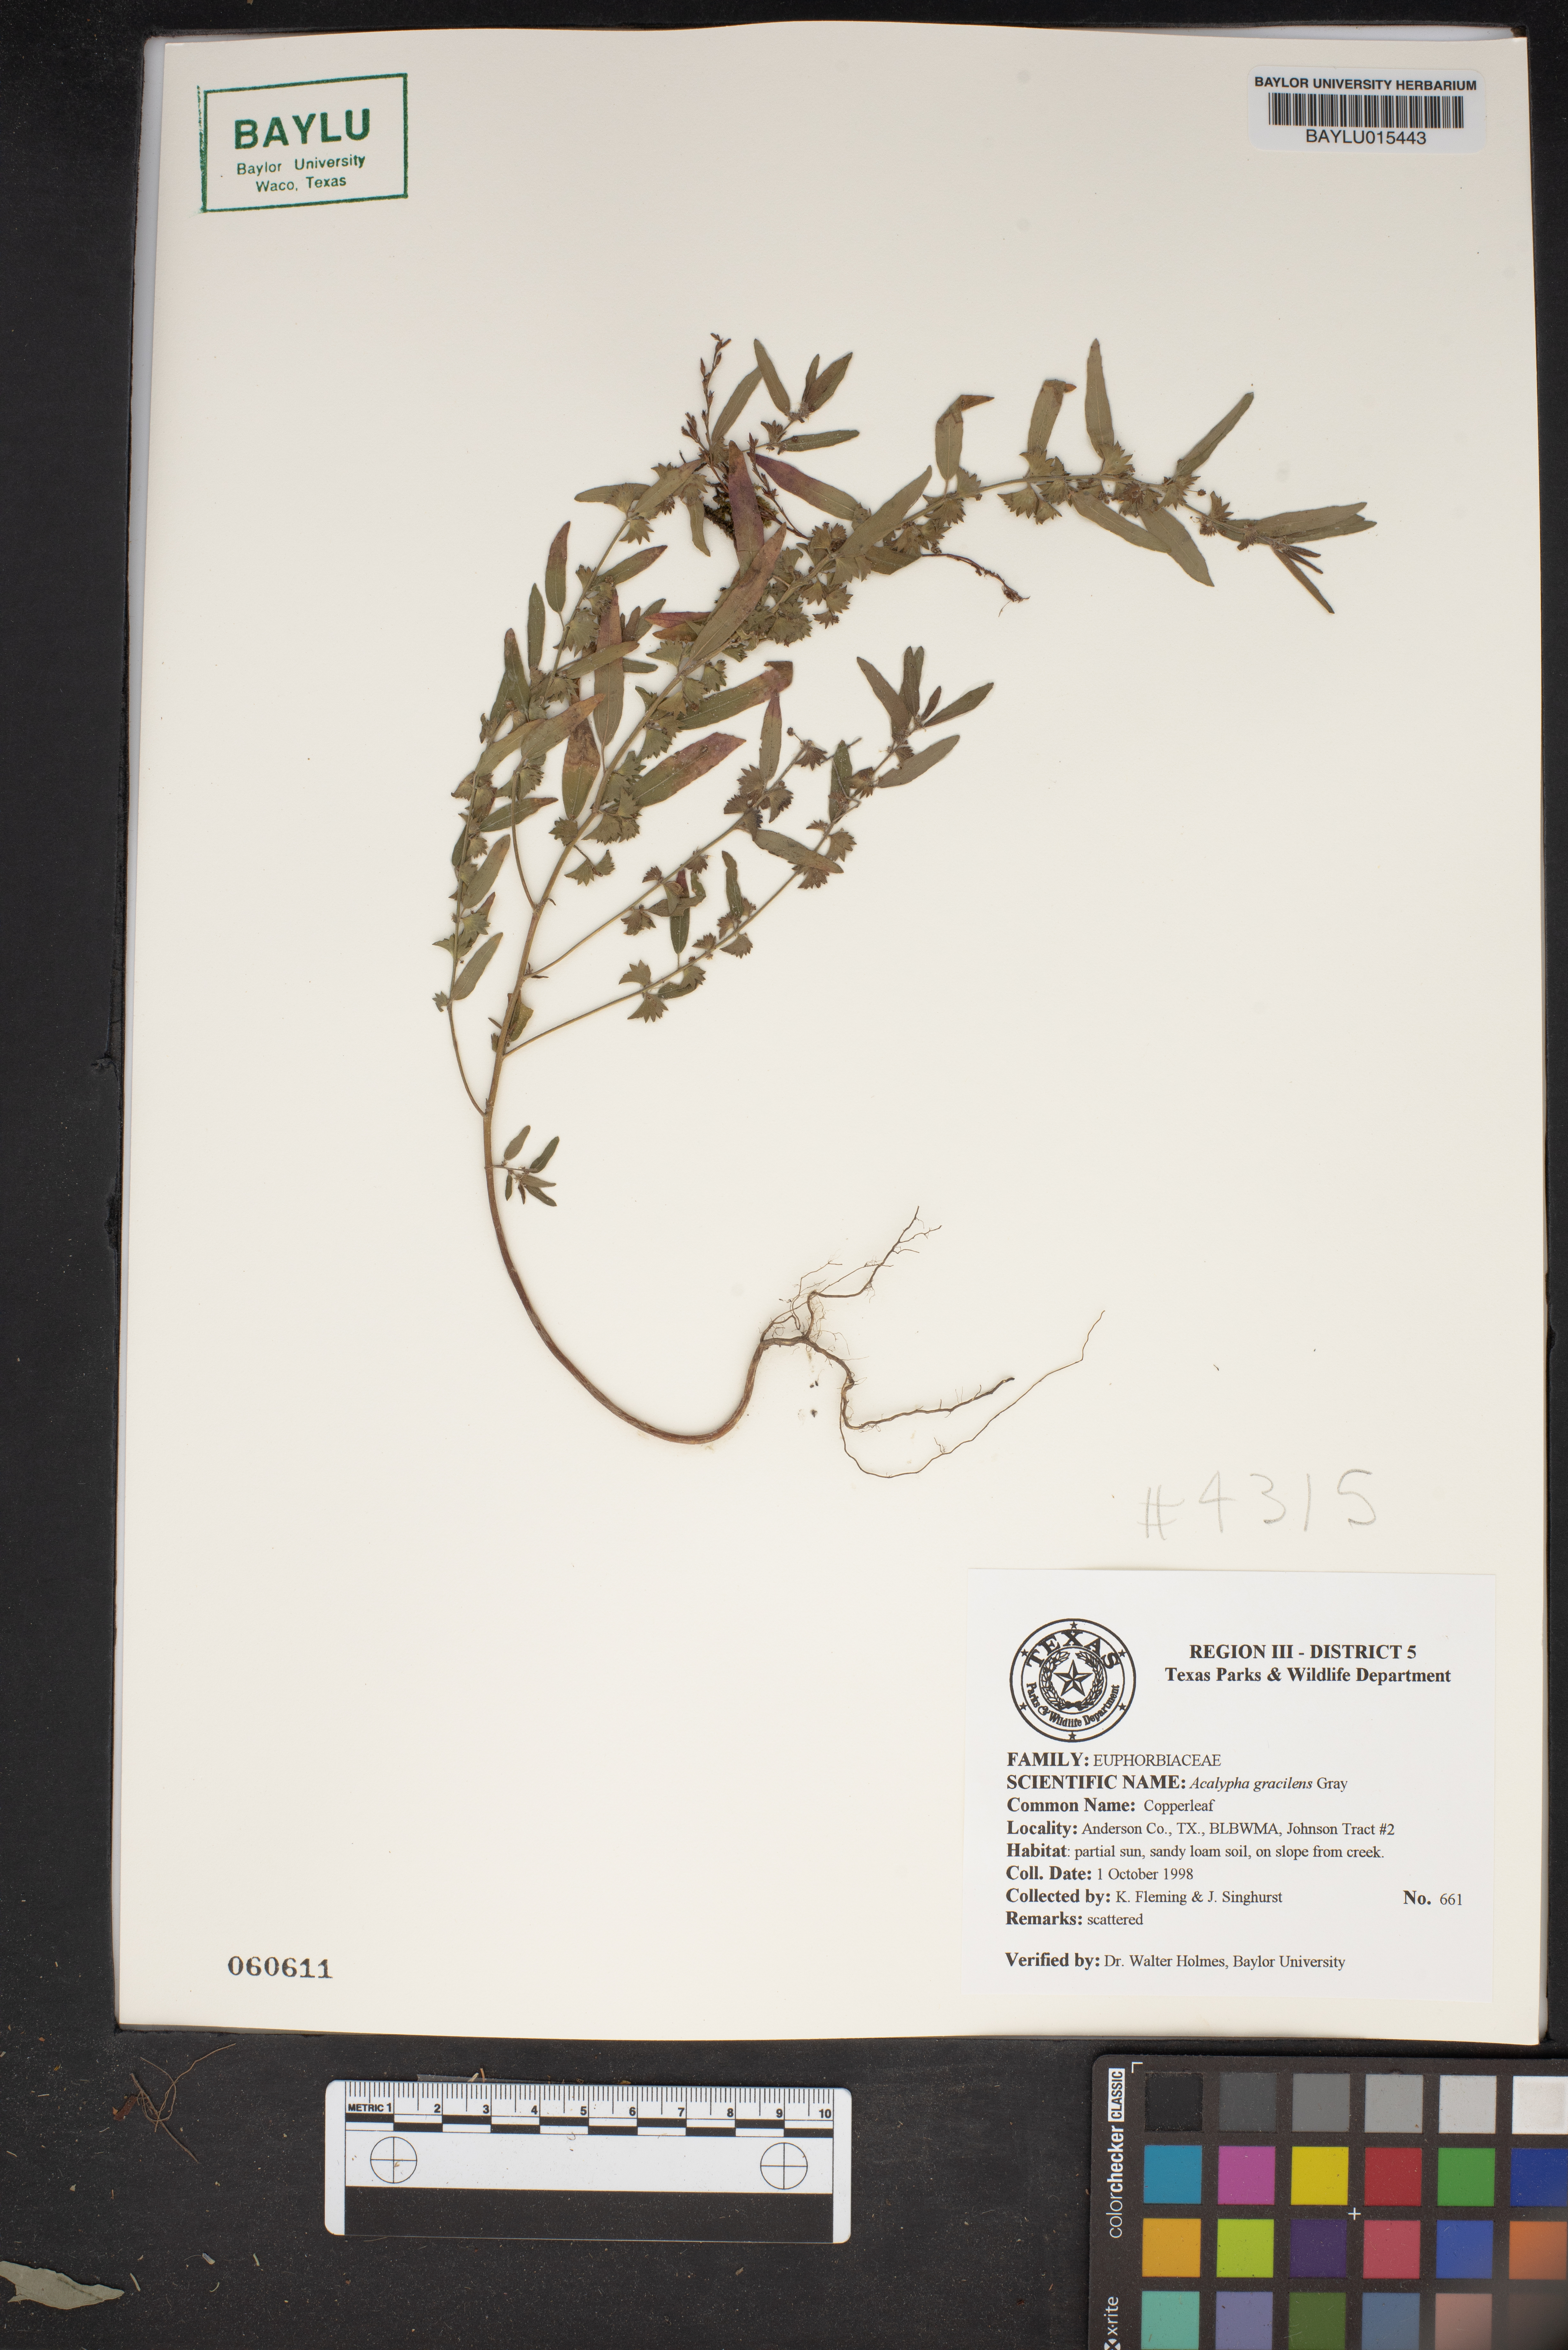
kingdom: Plantae
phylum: Tracheophyta
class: Magnoliopsida
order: Malpighiales
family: Euphorbiaceae
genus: Acalypha
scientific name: Acalypha gracilens
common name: Slender three-seeded mercury
